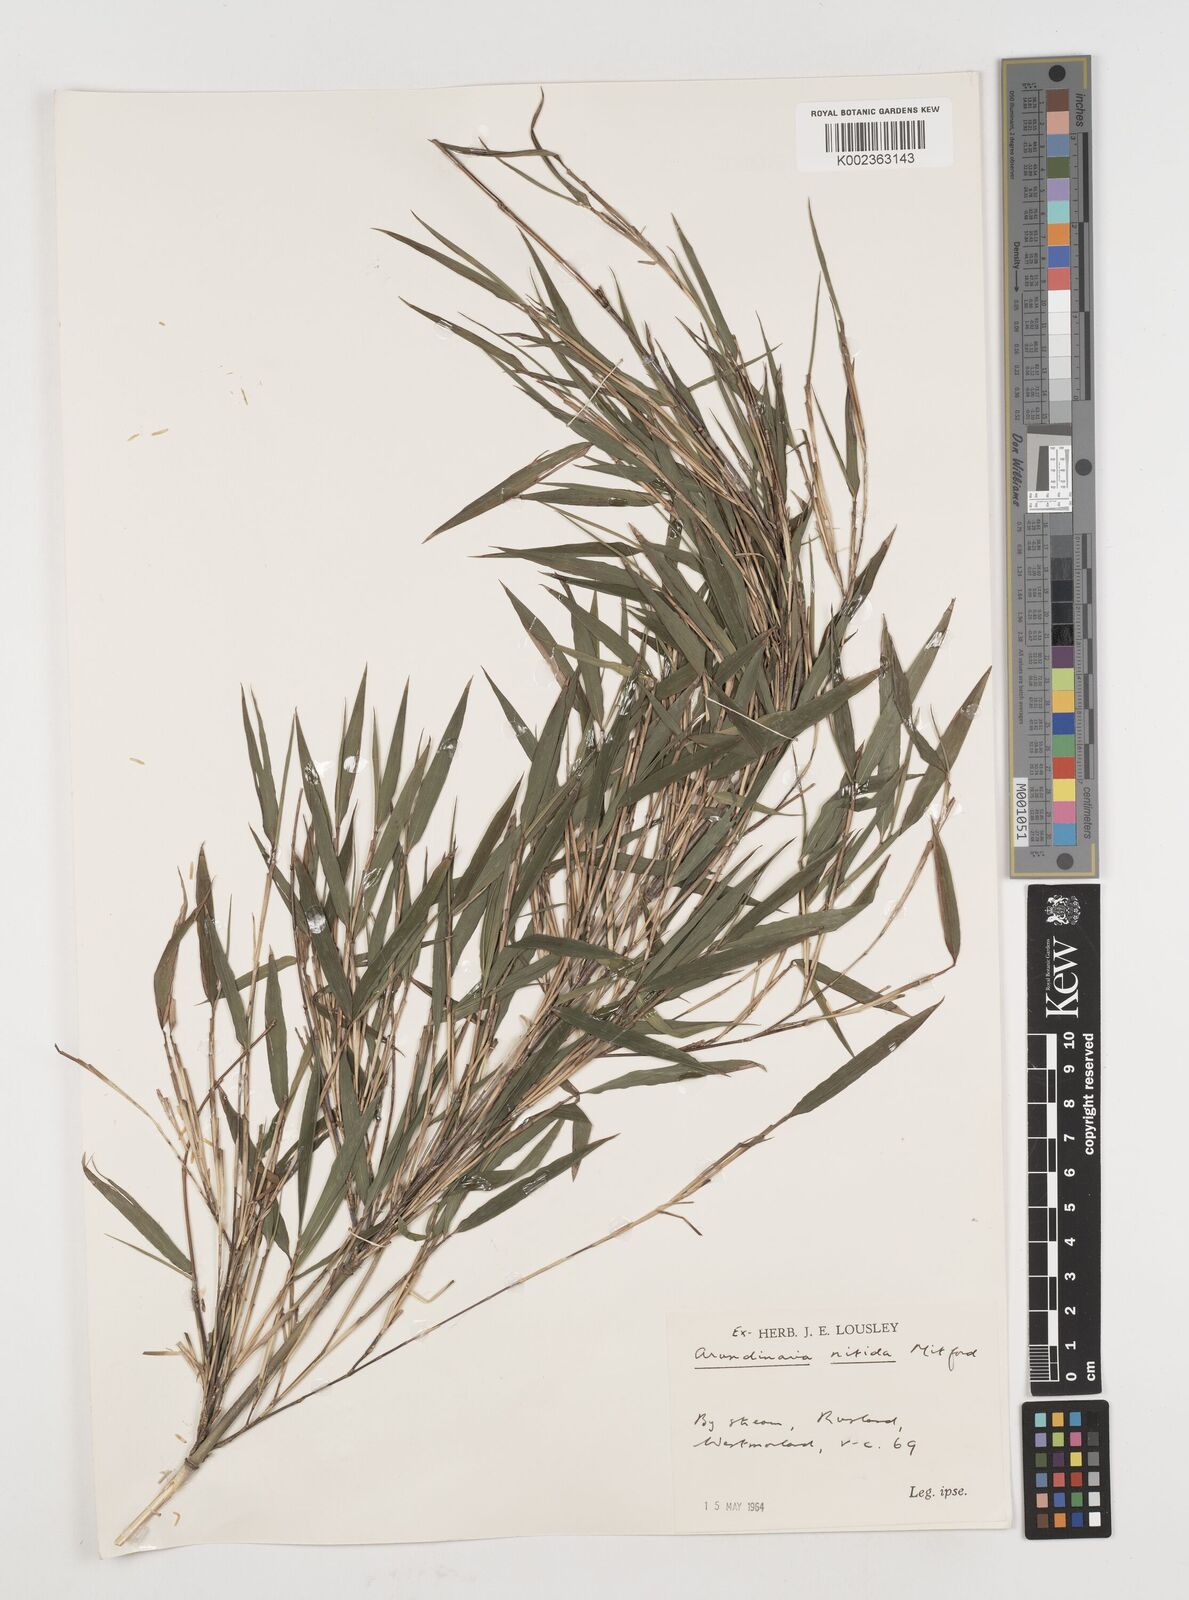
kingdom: Plantae
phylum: Tracheophyta
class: Liliopsida
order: Poales
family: Poaceae
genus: Fargesia
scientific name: Fargesia nitida ex
